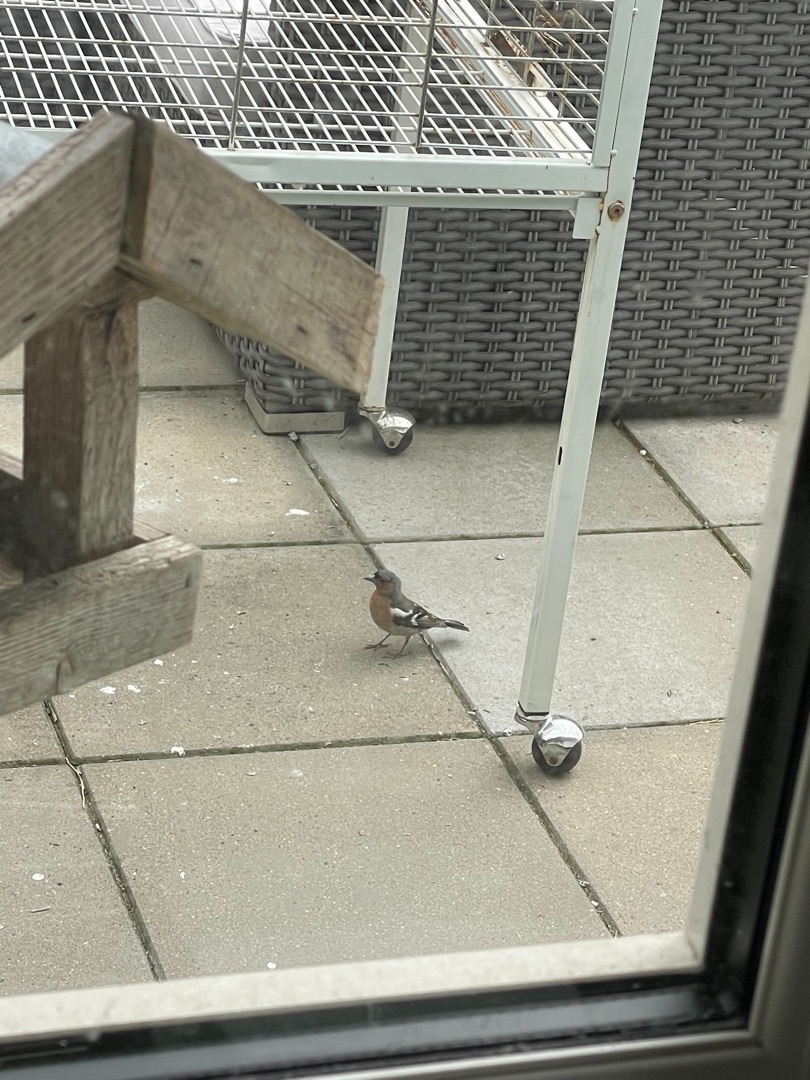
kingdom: Animalia
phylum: Chordata
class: Aves
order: Passeriformes
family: Fringillidae
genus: Fringilla
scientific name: Fringilla coelebs
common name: Bogfinke
